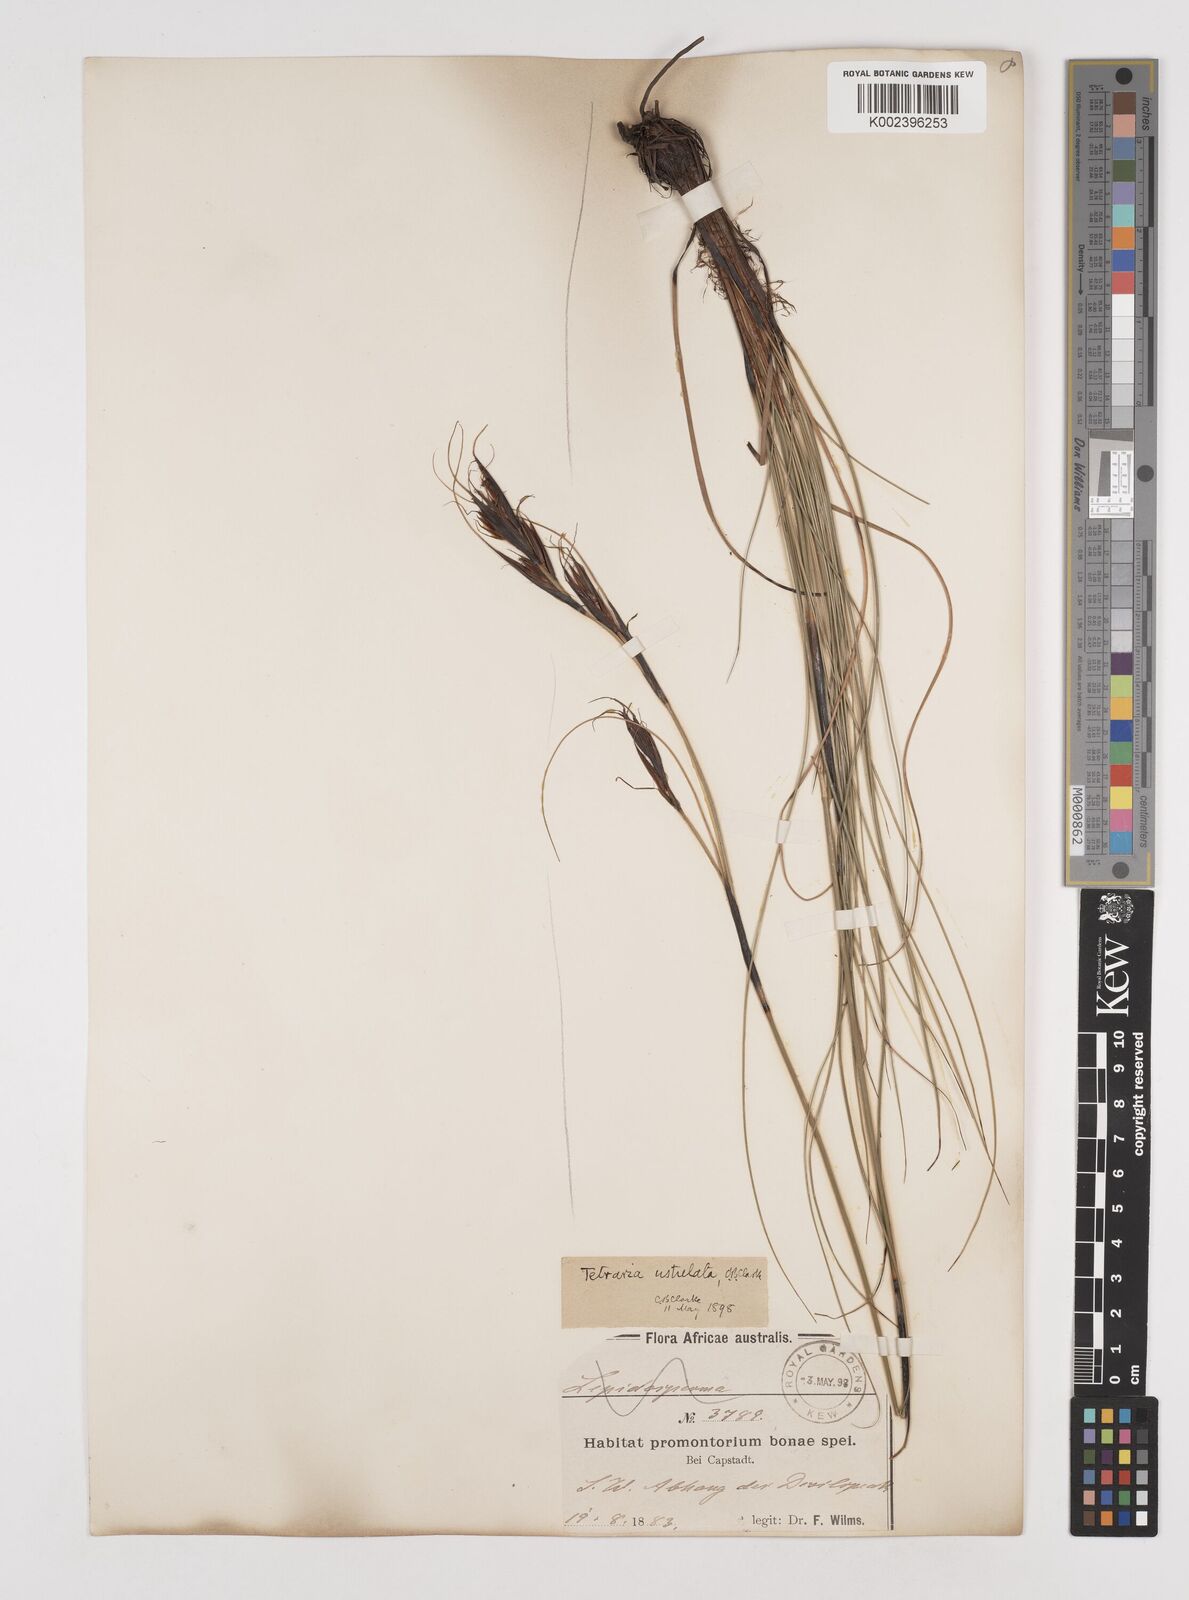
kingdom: Plantae
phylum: Tracheophyta
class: Liliopsida
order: Poales
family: Cyperaceae
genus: Tetraria
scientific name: Tetraria ustulata
